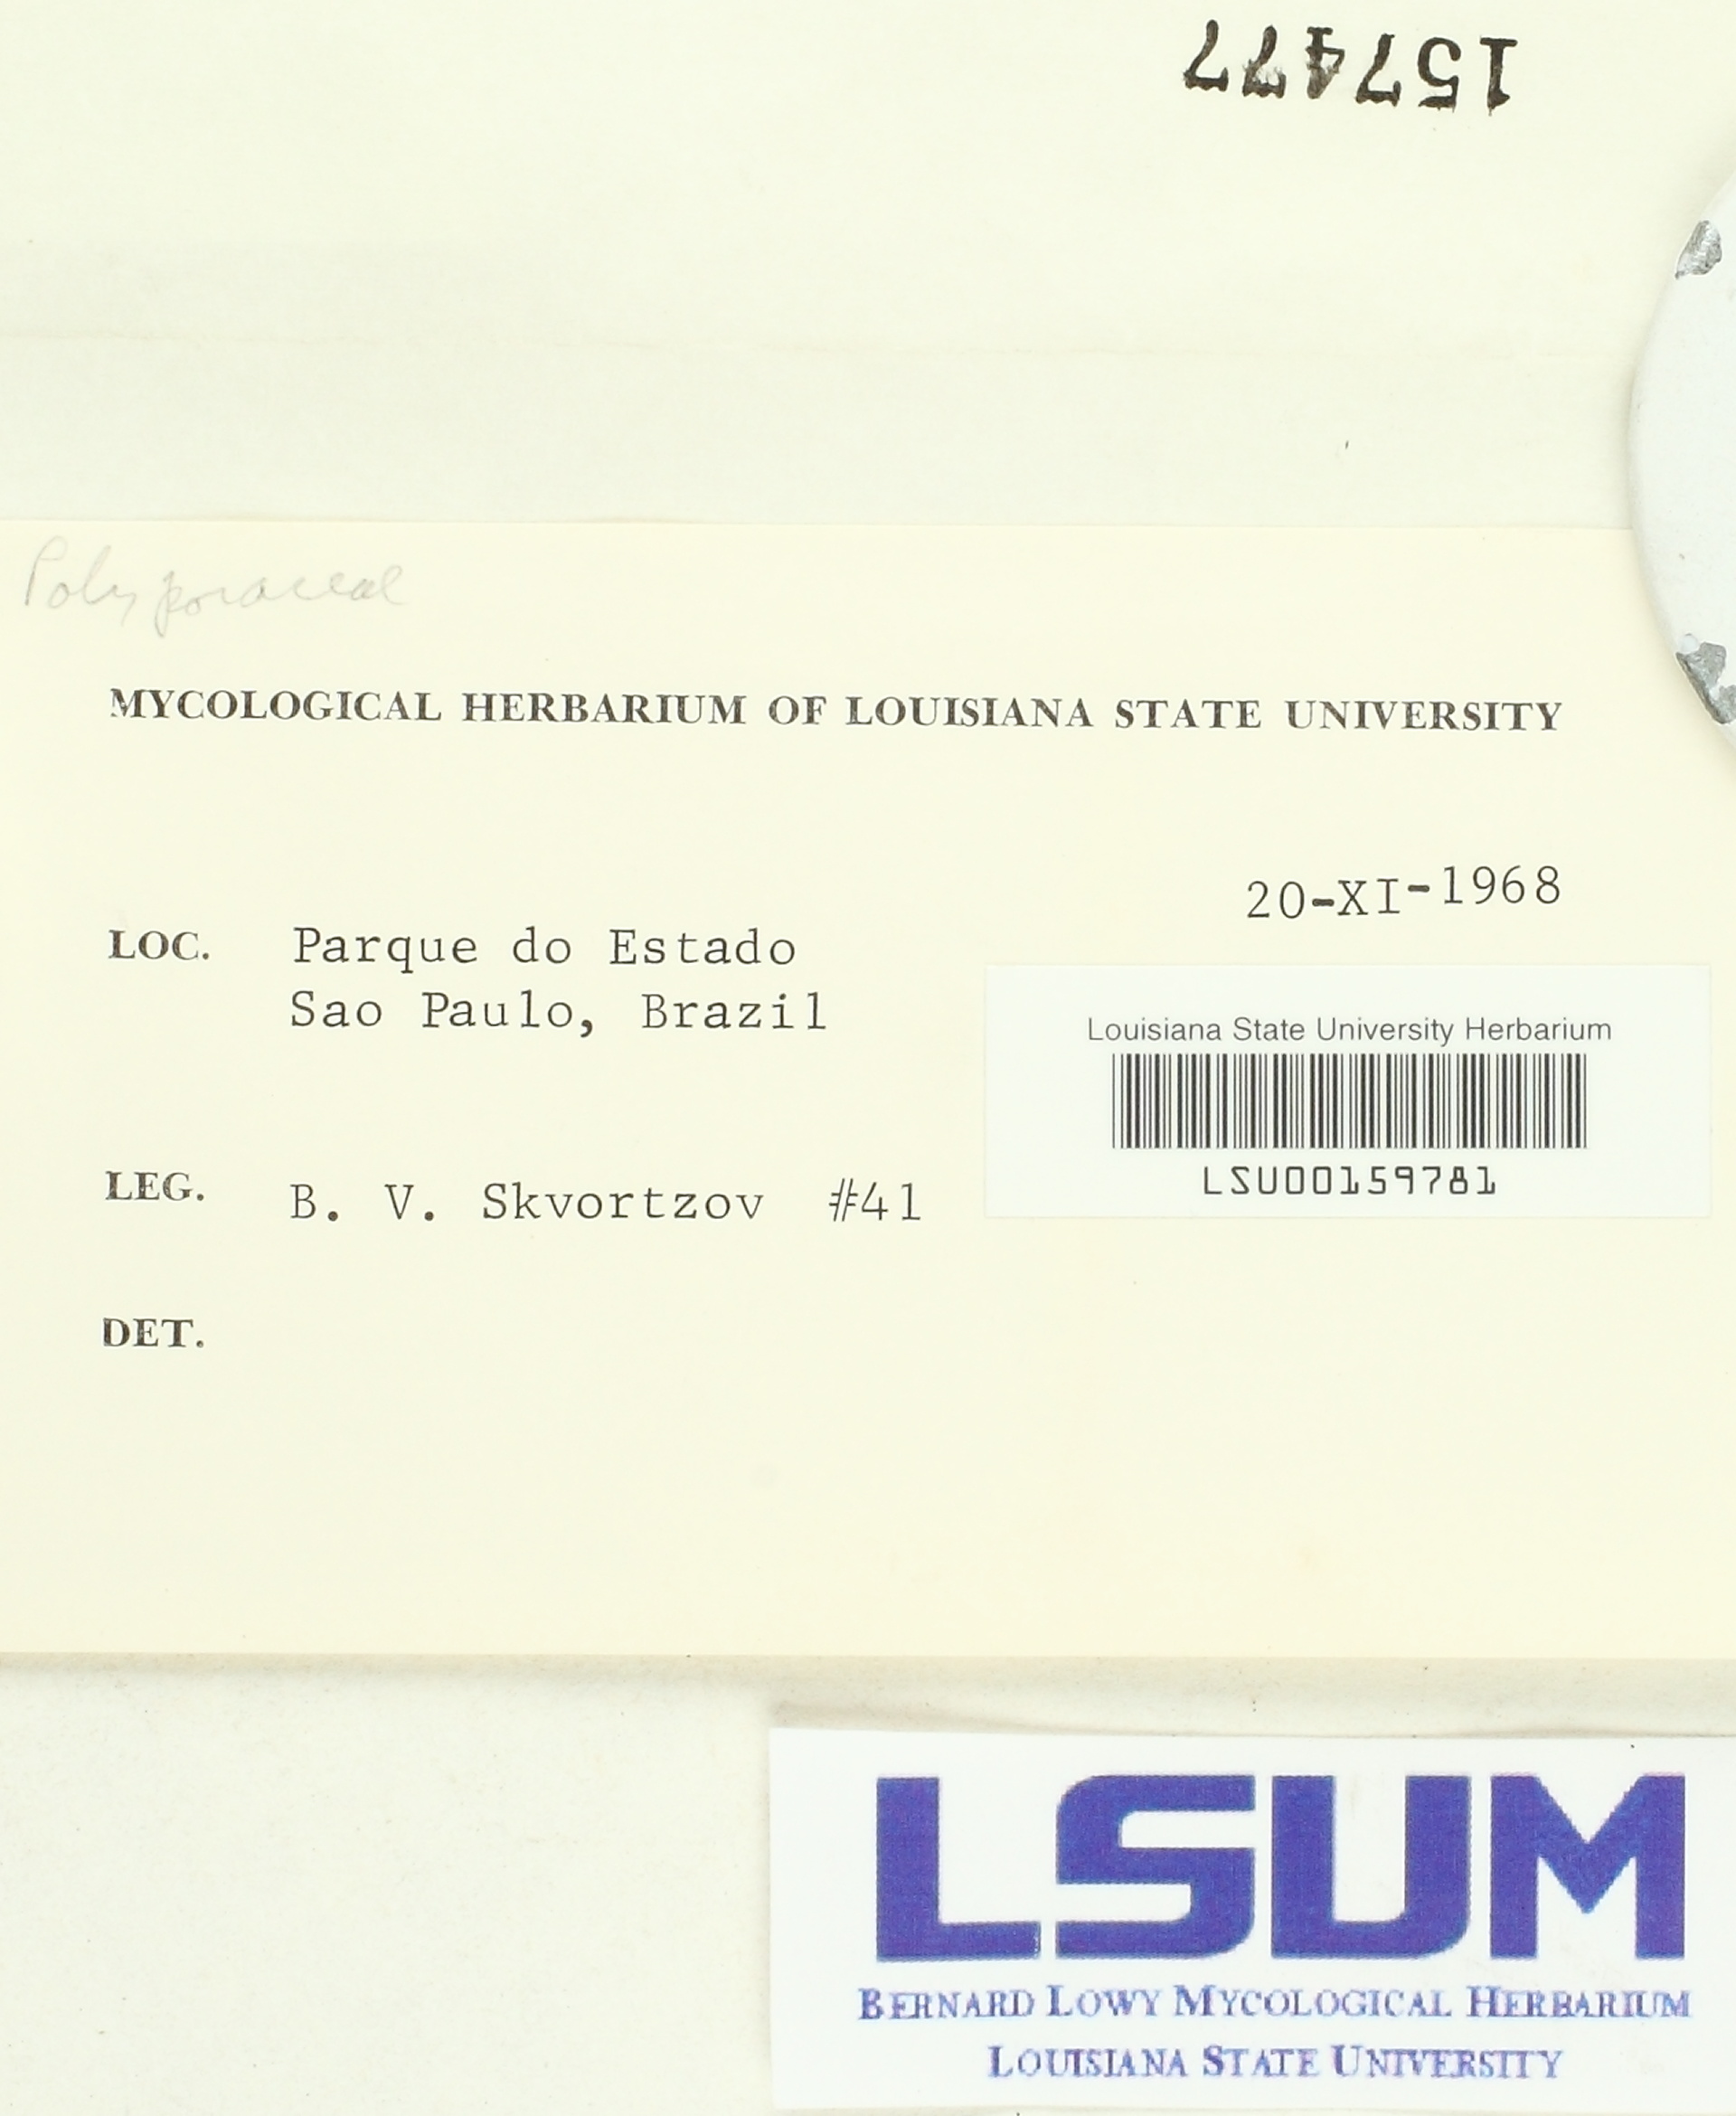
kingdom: Fungi
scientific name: Fungi
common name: Fungi
